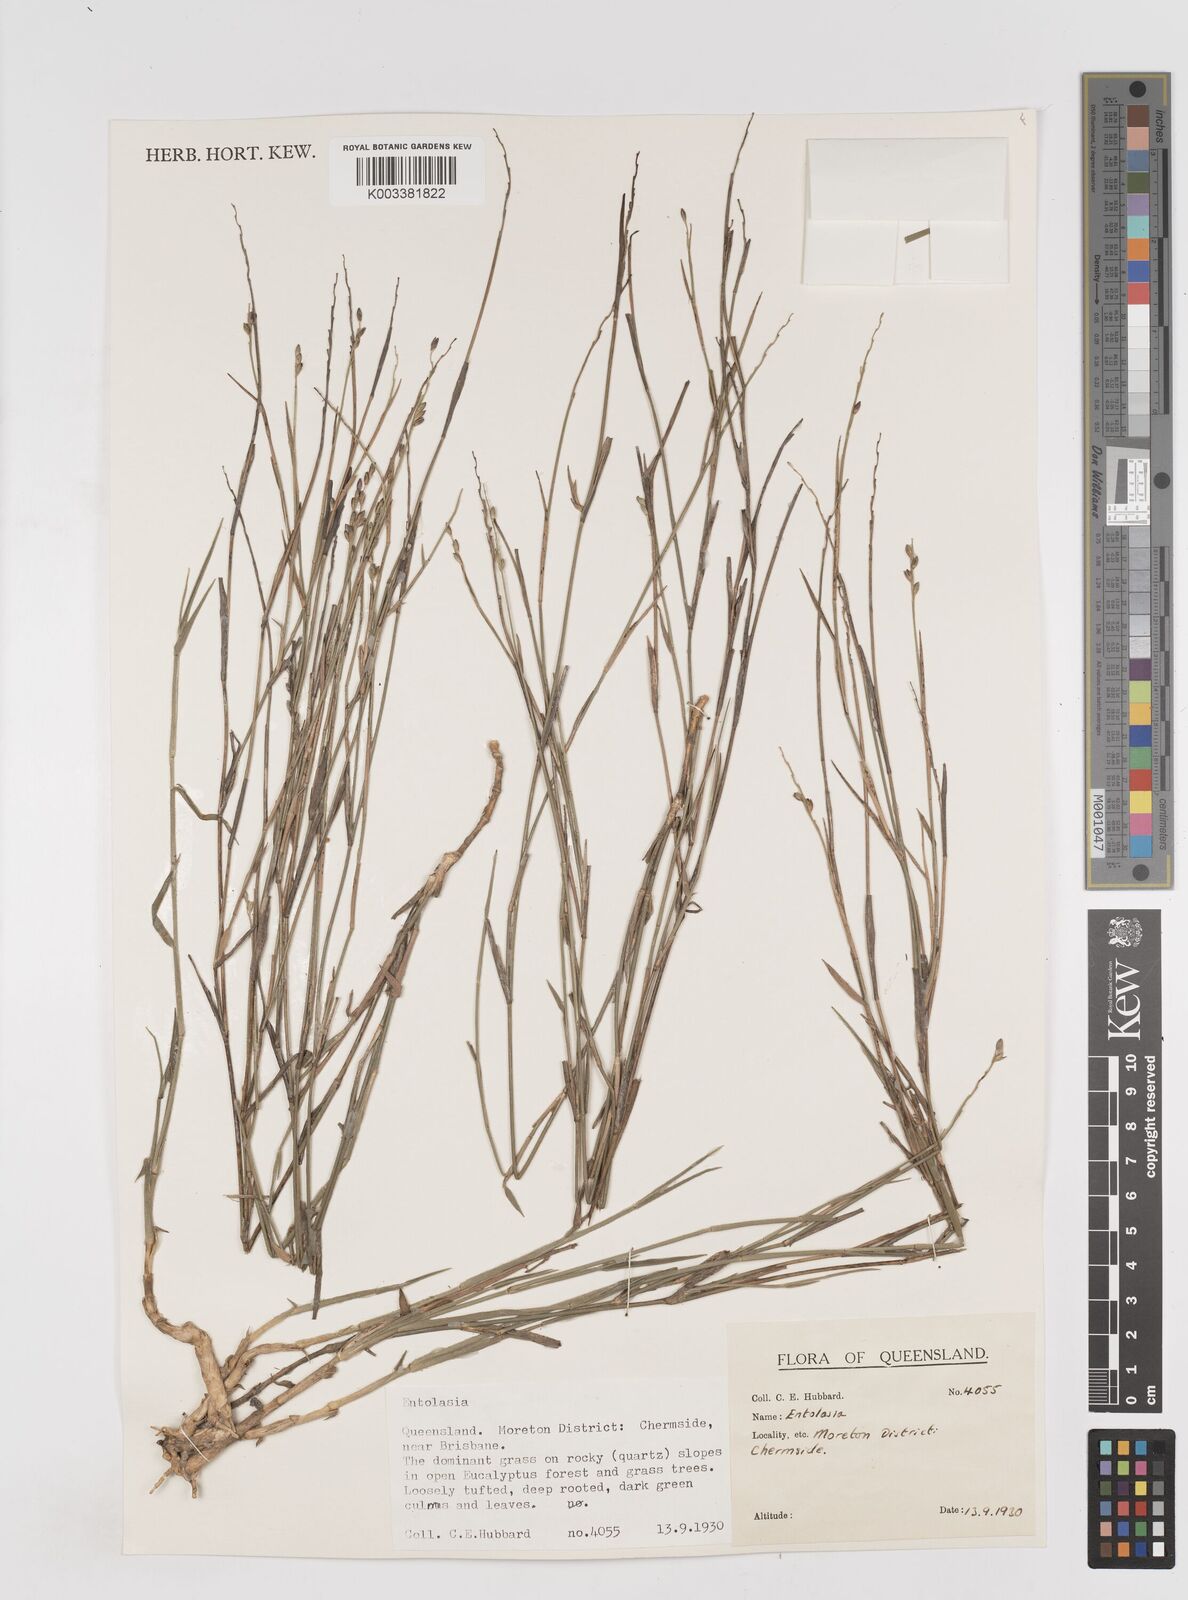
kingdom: Plantae
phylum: Tracheophyta
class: Liliopsida
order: Poales
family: Poaceae
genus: Entolasia
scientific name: Entolasia
